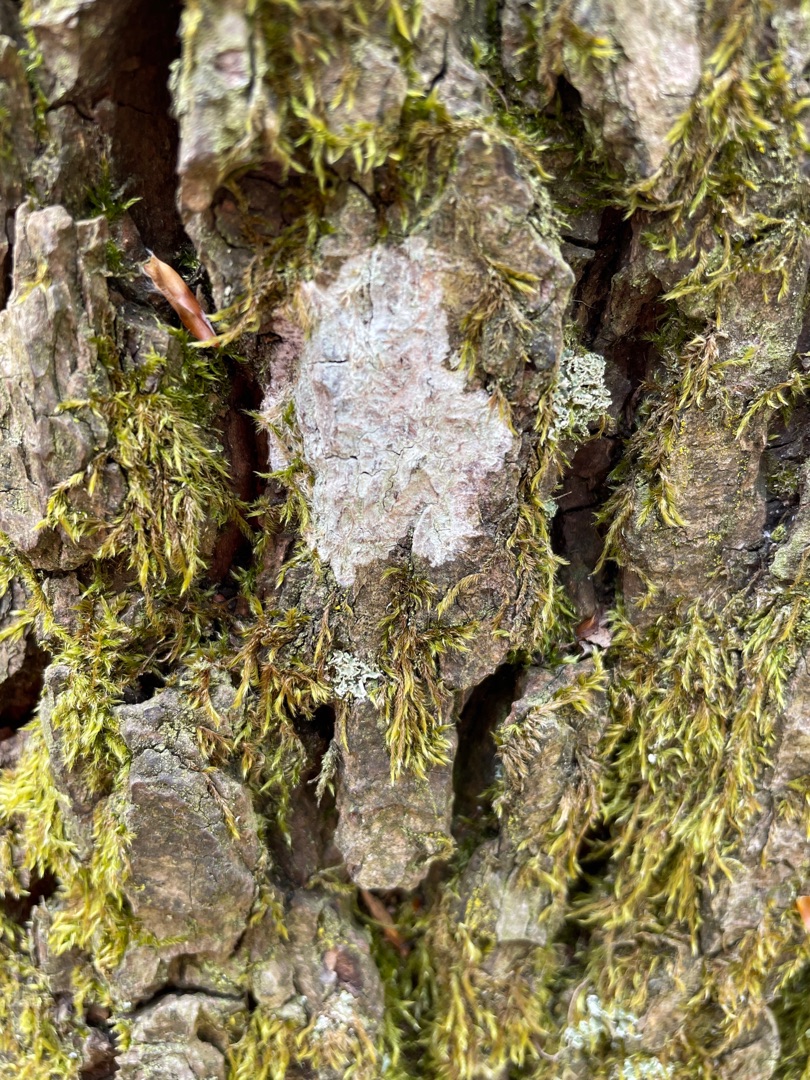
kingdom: Fungi
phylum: Ascomycota
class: Lecanoromycetes
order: Ostropales
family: Phlyctidaceae
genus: Phlyctis
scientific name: Phlyctis argena
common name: Almindelig sølvlav
